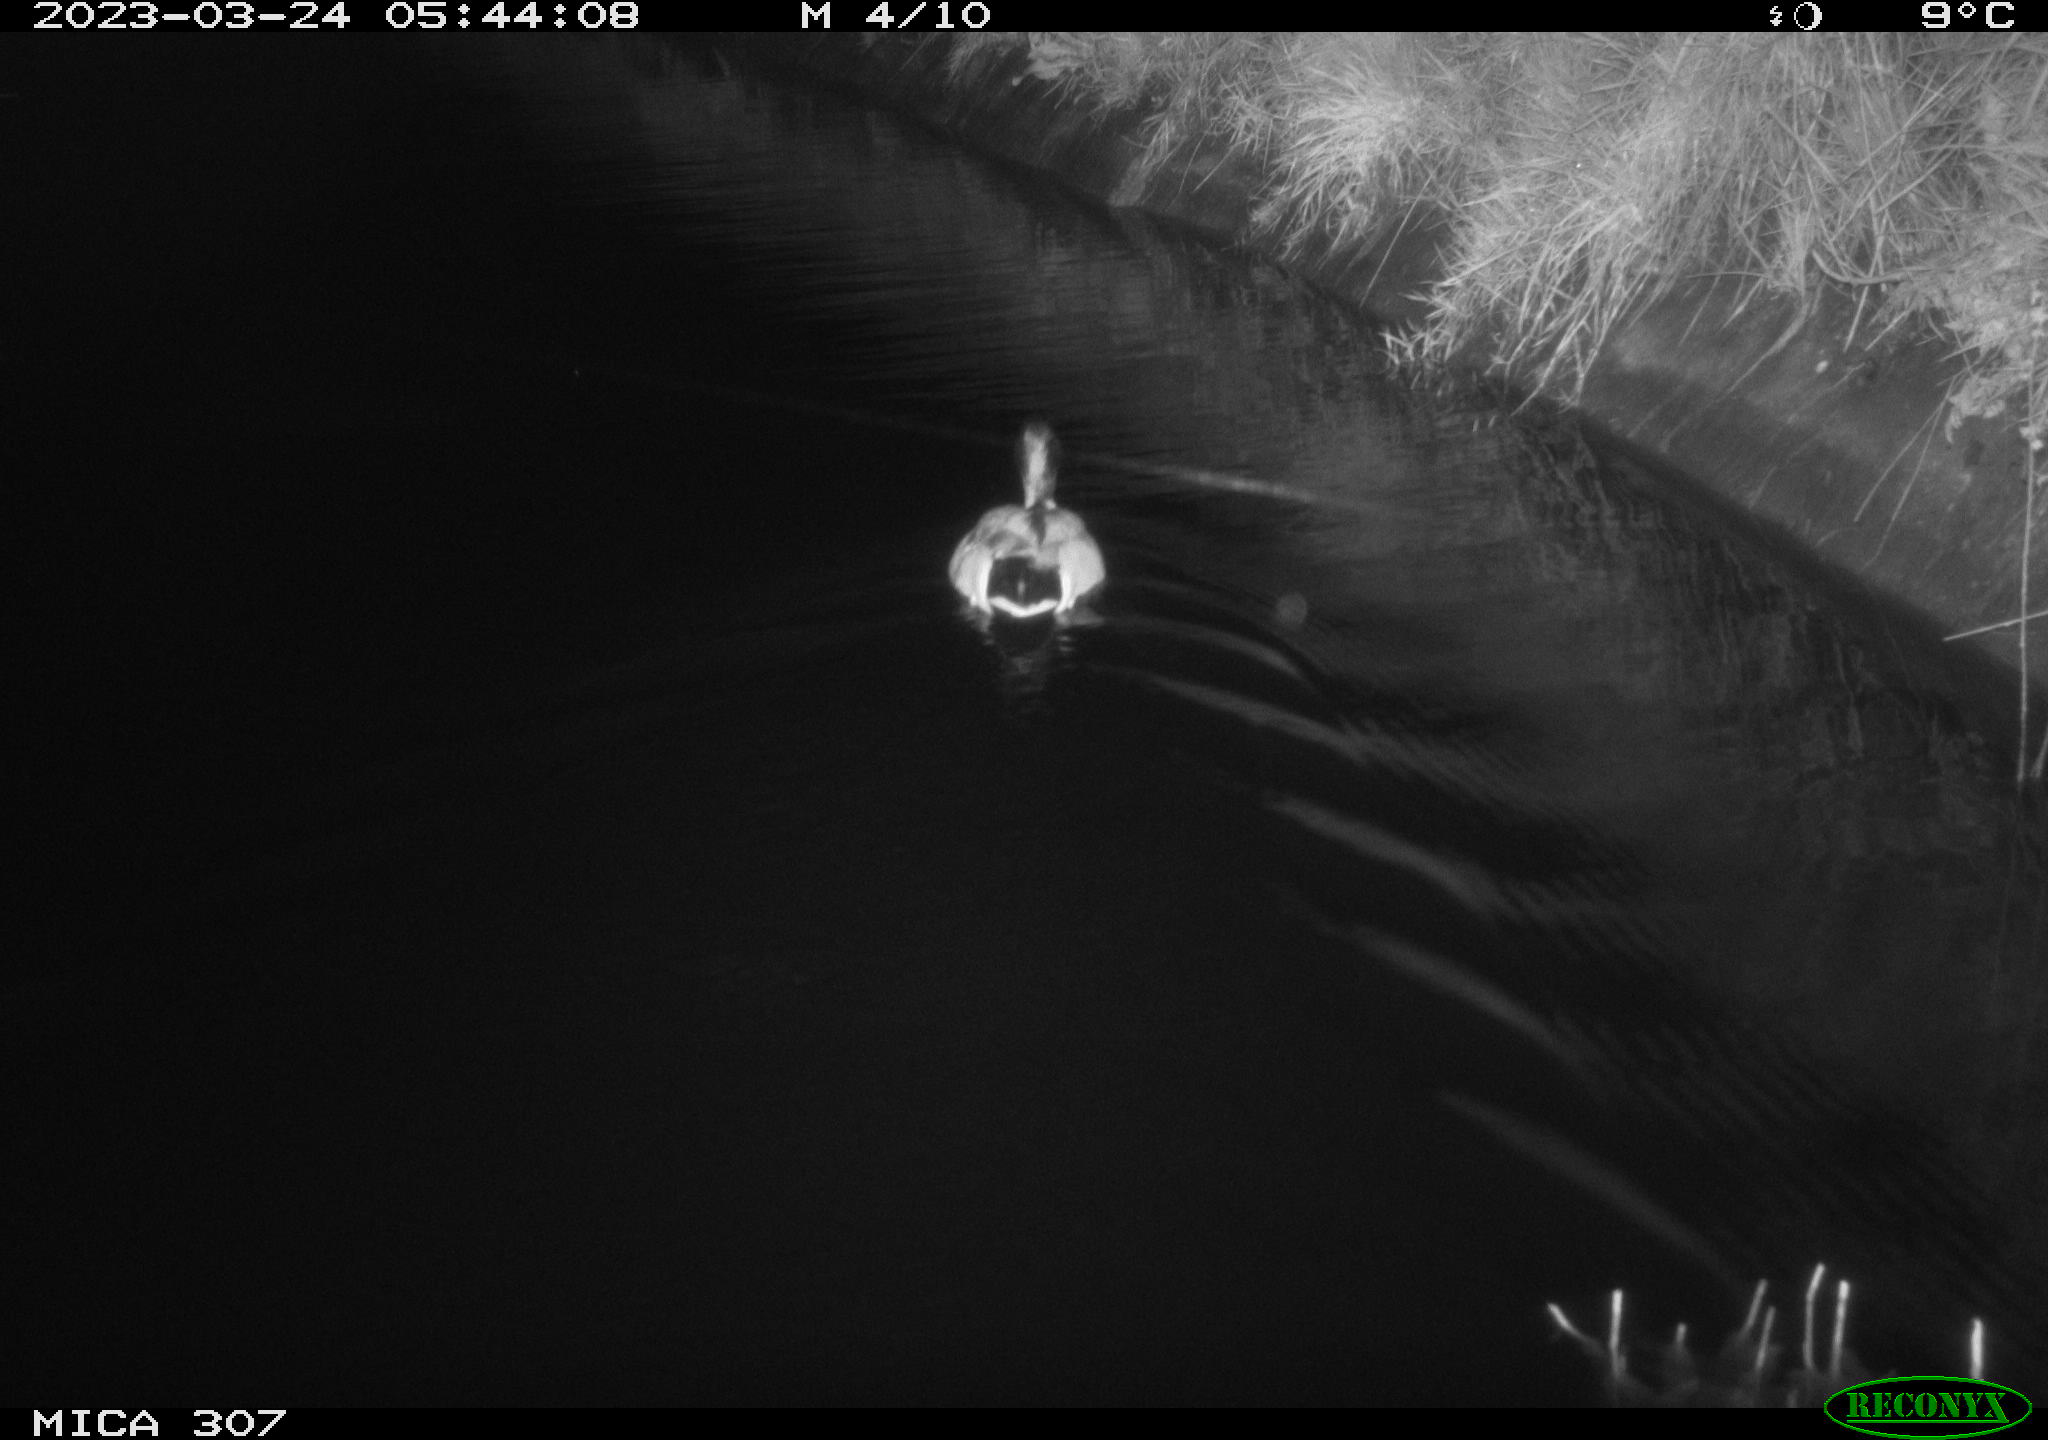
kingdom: Animalia
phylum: Chordata
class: Aves
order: Anseriformes
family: Anatidae
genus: Anas
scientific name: Anas
